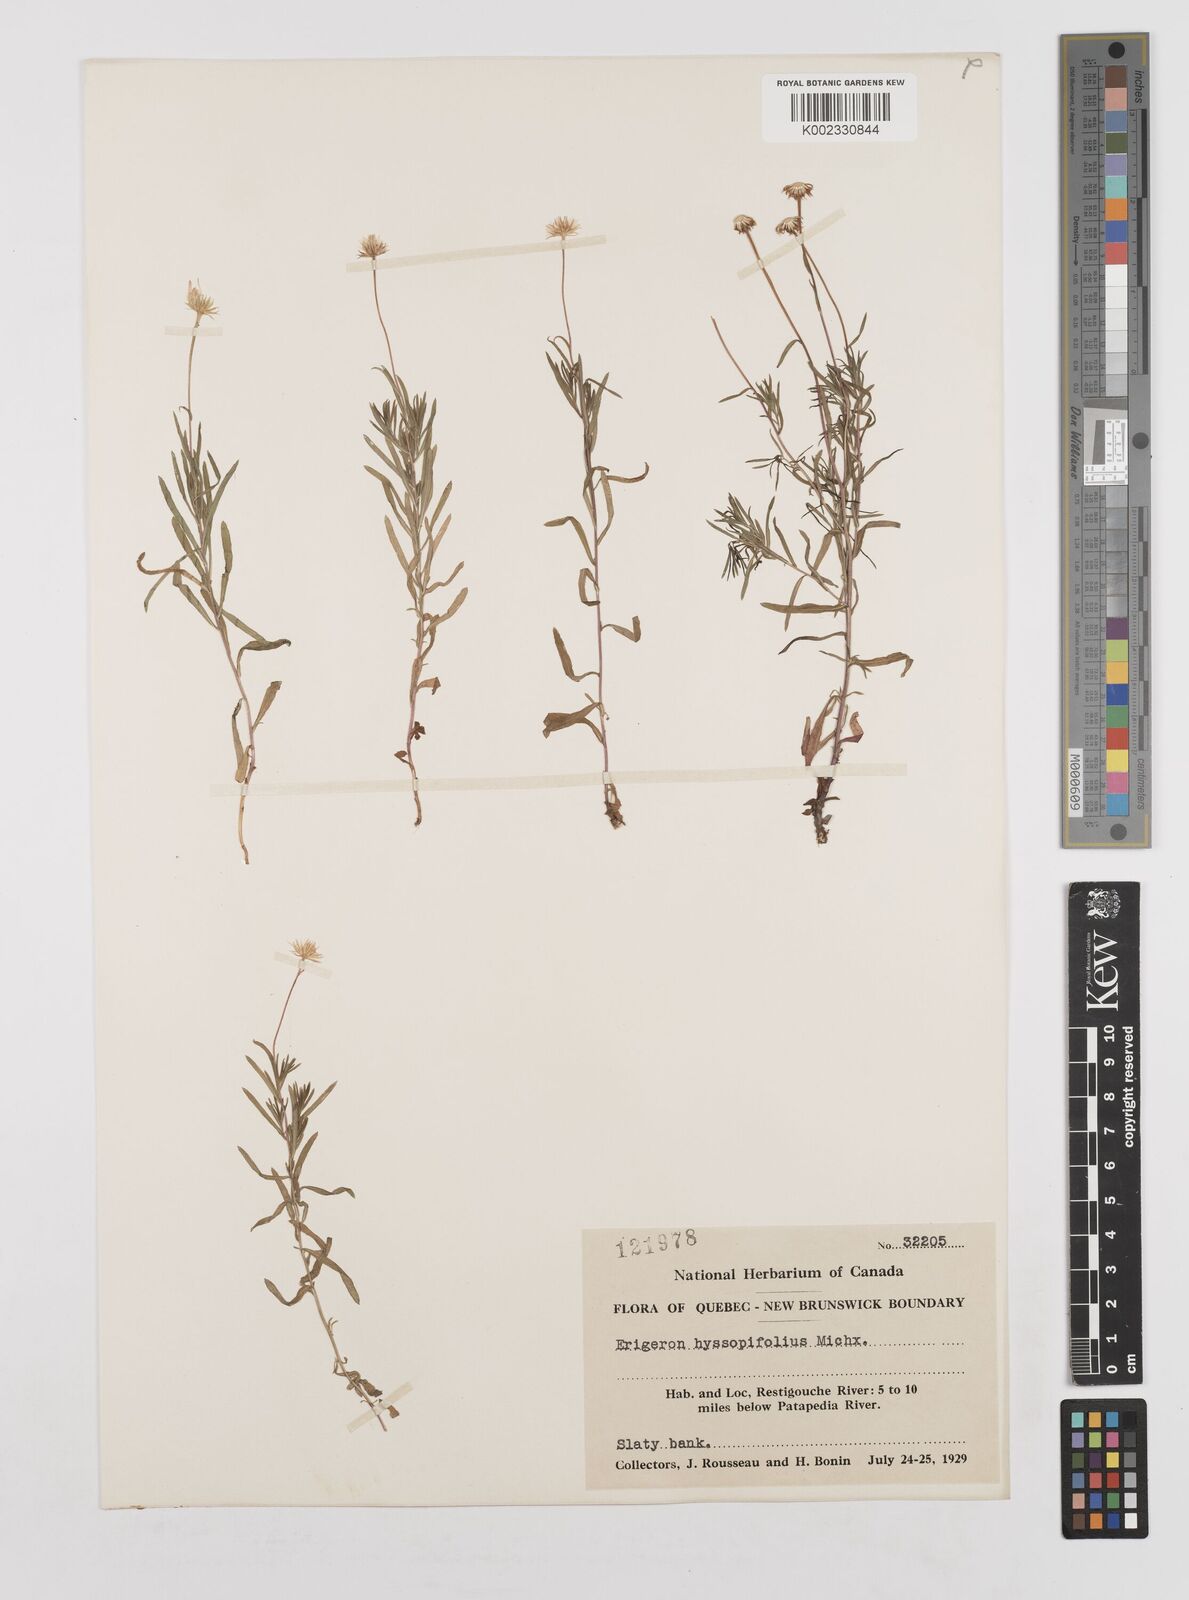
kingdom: Plantae
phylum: Tracheophyta
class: Magnoliopsida
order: Asterales
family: Asteraceae
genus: Erigeron
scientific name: Erigeron hyssopifolius
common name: Daisy fleabane
